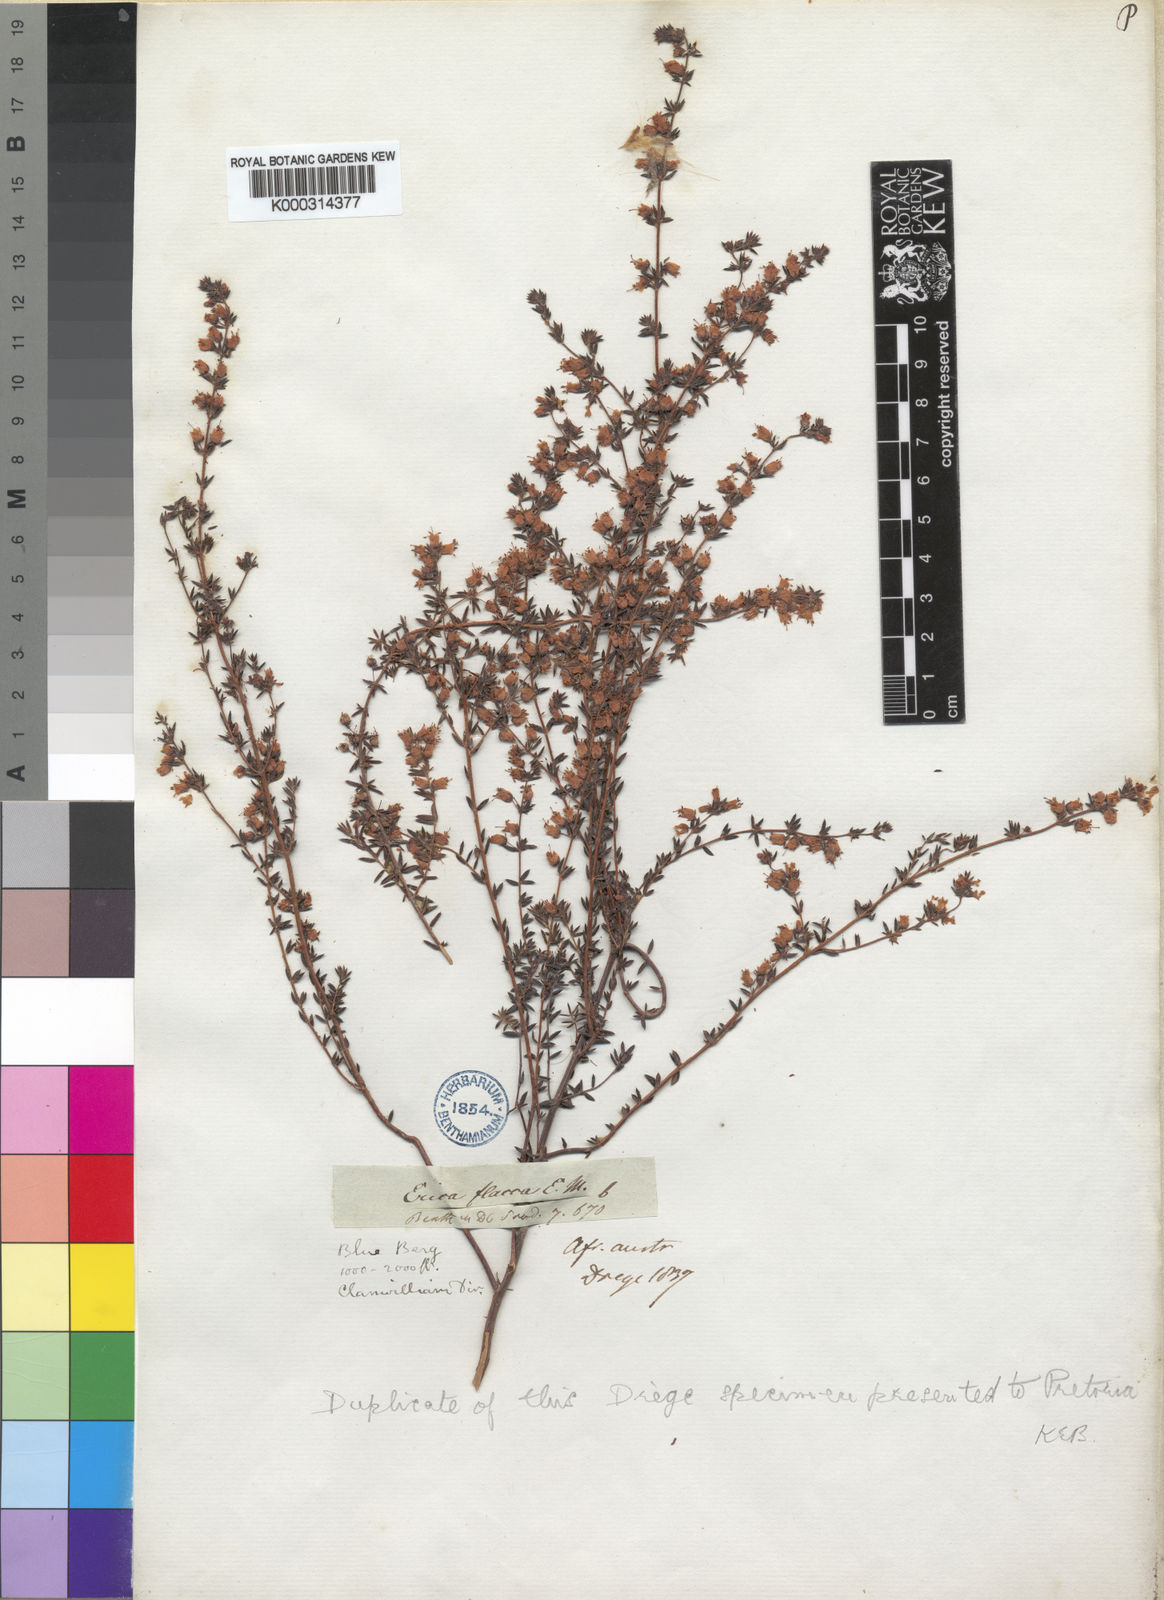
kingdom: Plantae
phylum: Tracheophyta
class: Magnoliopsida
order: Ericales
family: Ericaceae
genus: Erica
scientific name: Erica flacca
